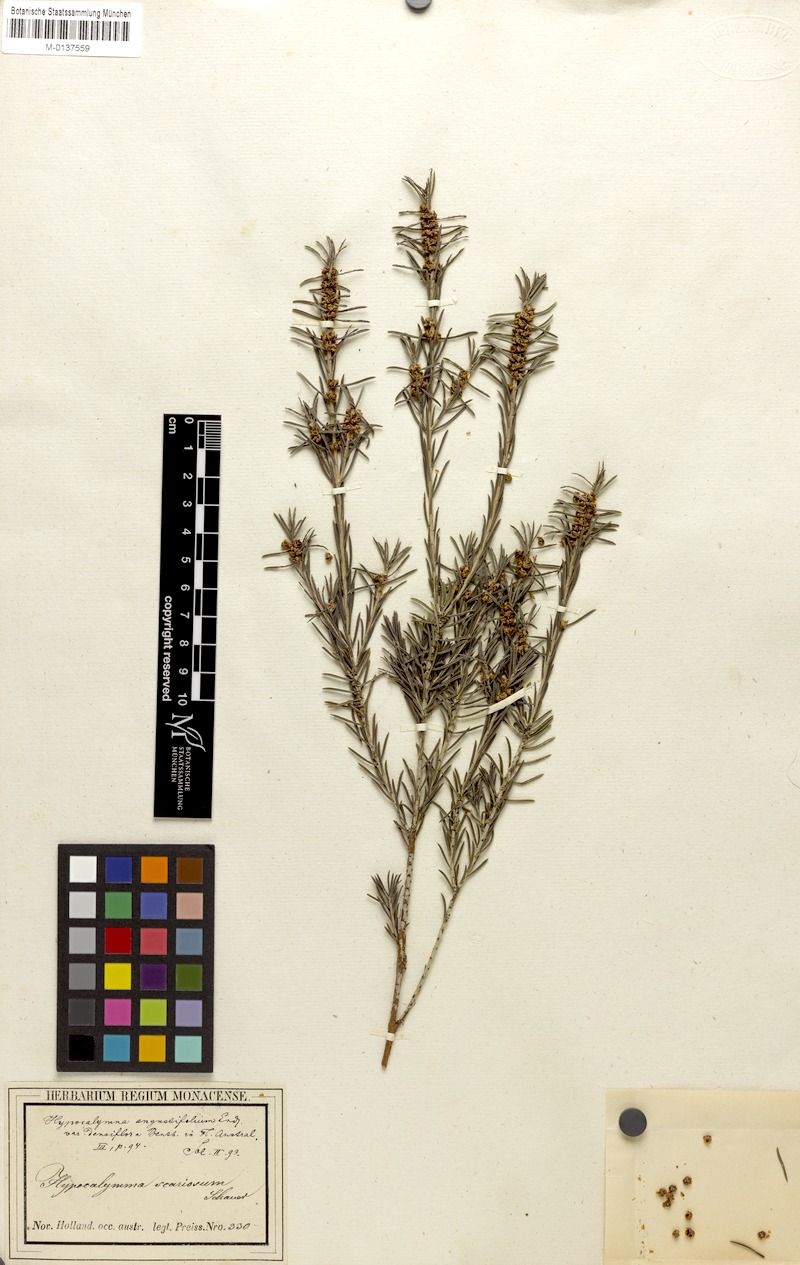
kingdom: Plantae
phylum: Tracheophyta
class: Magnoliopsida
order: Myrtales
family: Myrtaceae
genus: Hypocalymma
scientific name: Hypocalymma scariosum
